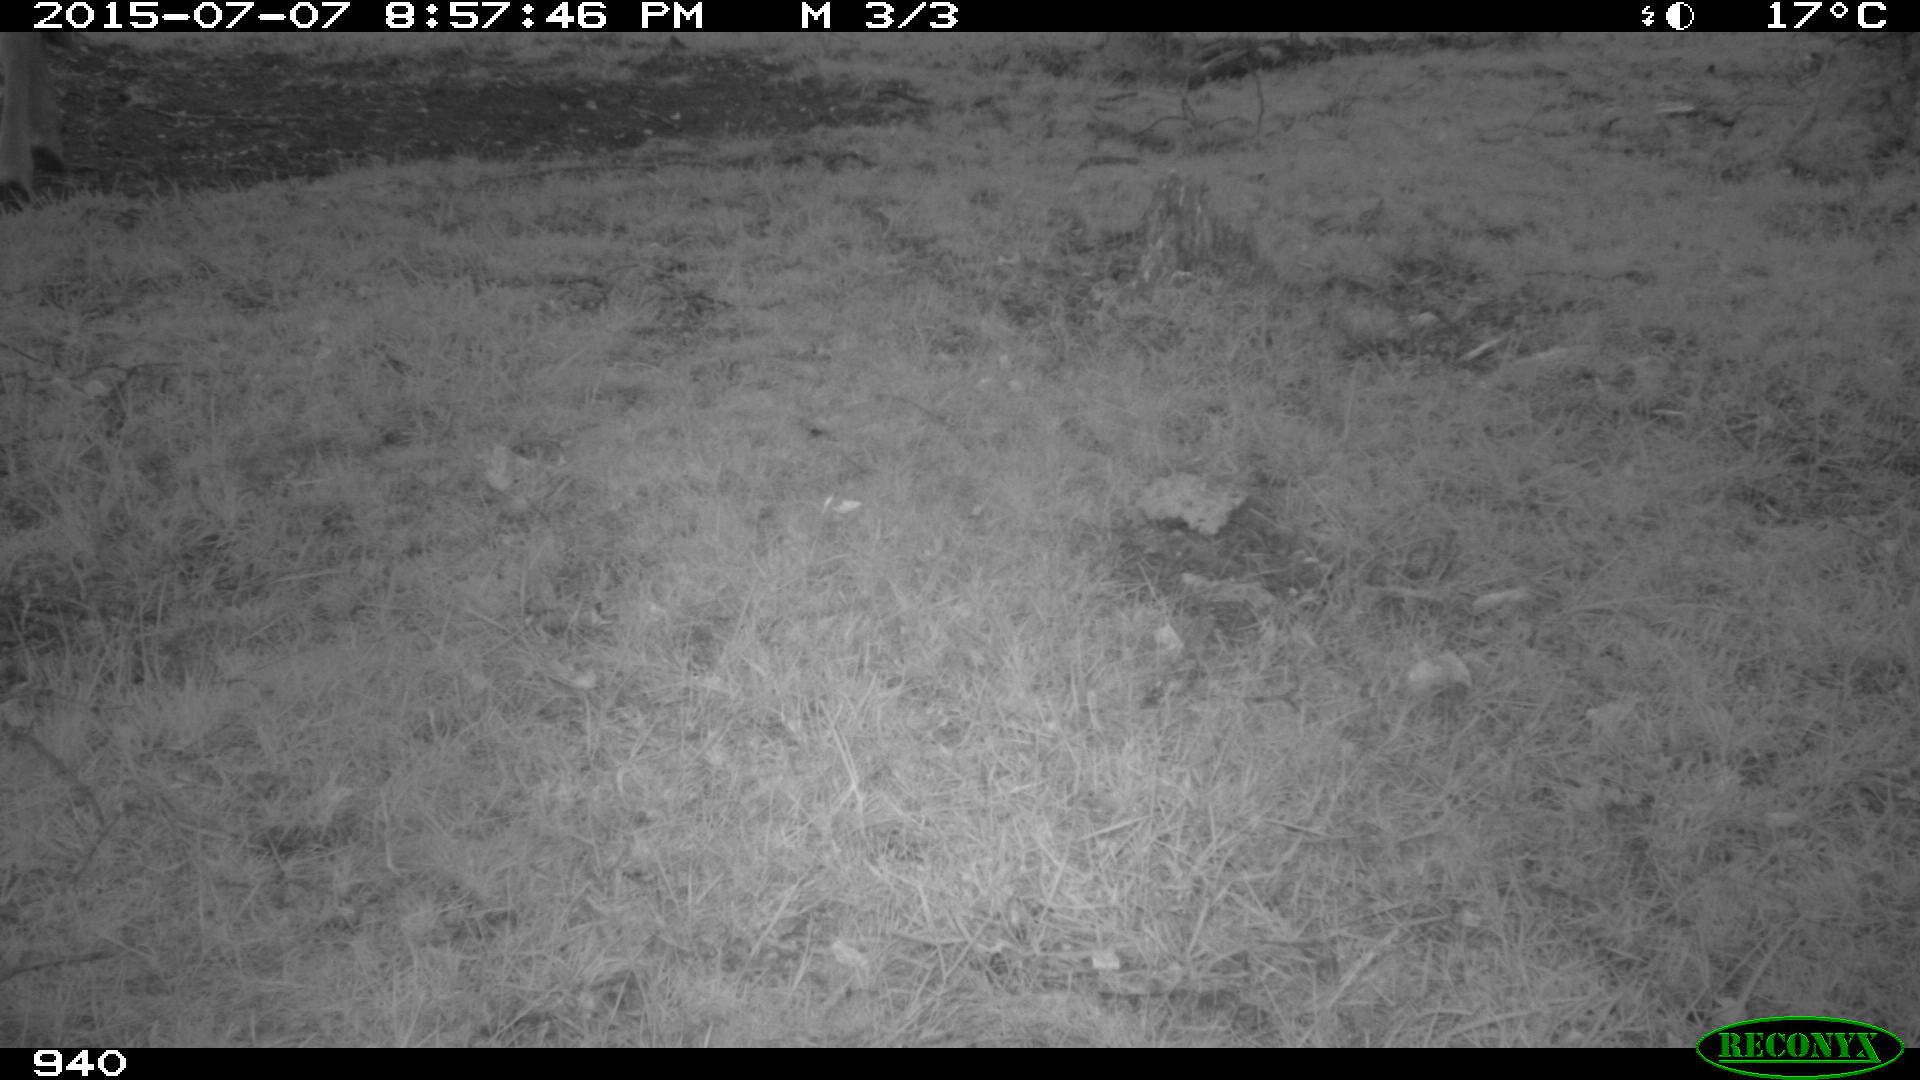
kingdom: Animalia
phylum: Chordata
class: Mammalia
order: Artiodactyla
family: Bovidae
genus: Bos
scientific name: Bos taurus
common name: Domesticated cattle
